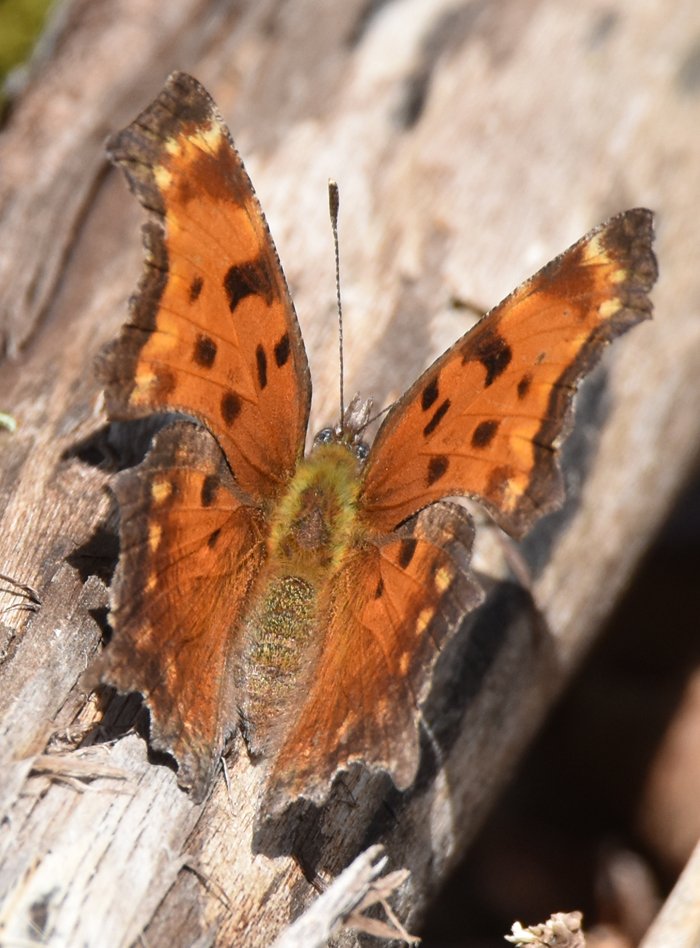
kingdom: Animalia
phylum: Arthropoda
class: Insecta
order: Lepidoptera
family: Nymphalidae
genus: Polygonia
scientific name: Polygonia progne
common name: Gray Comma
